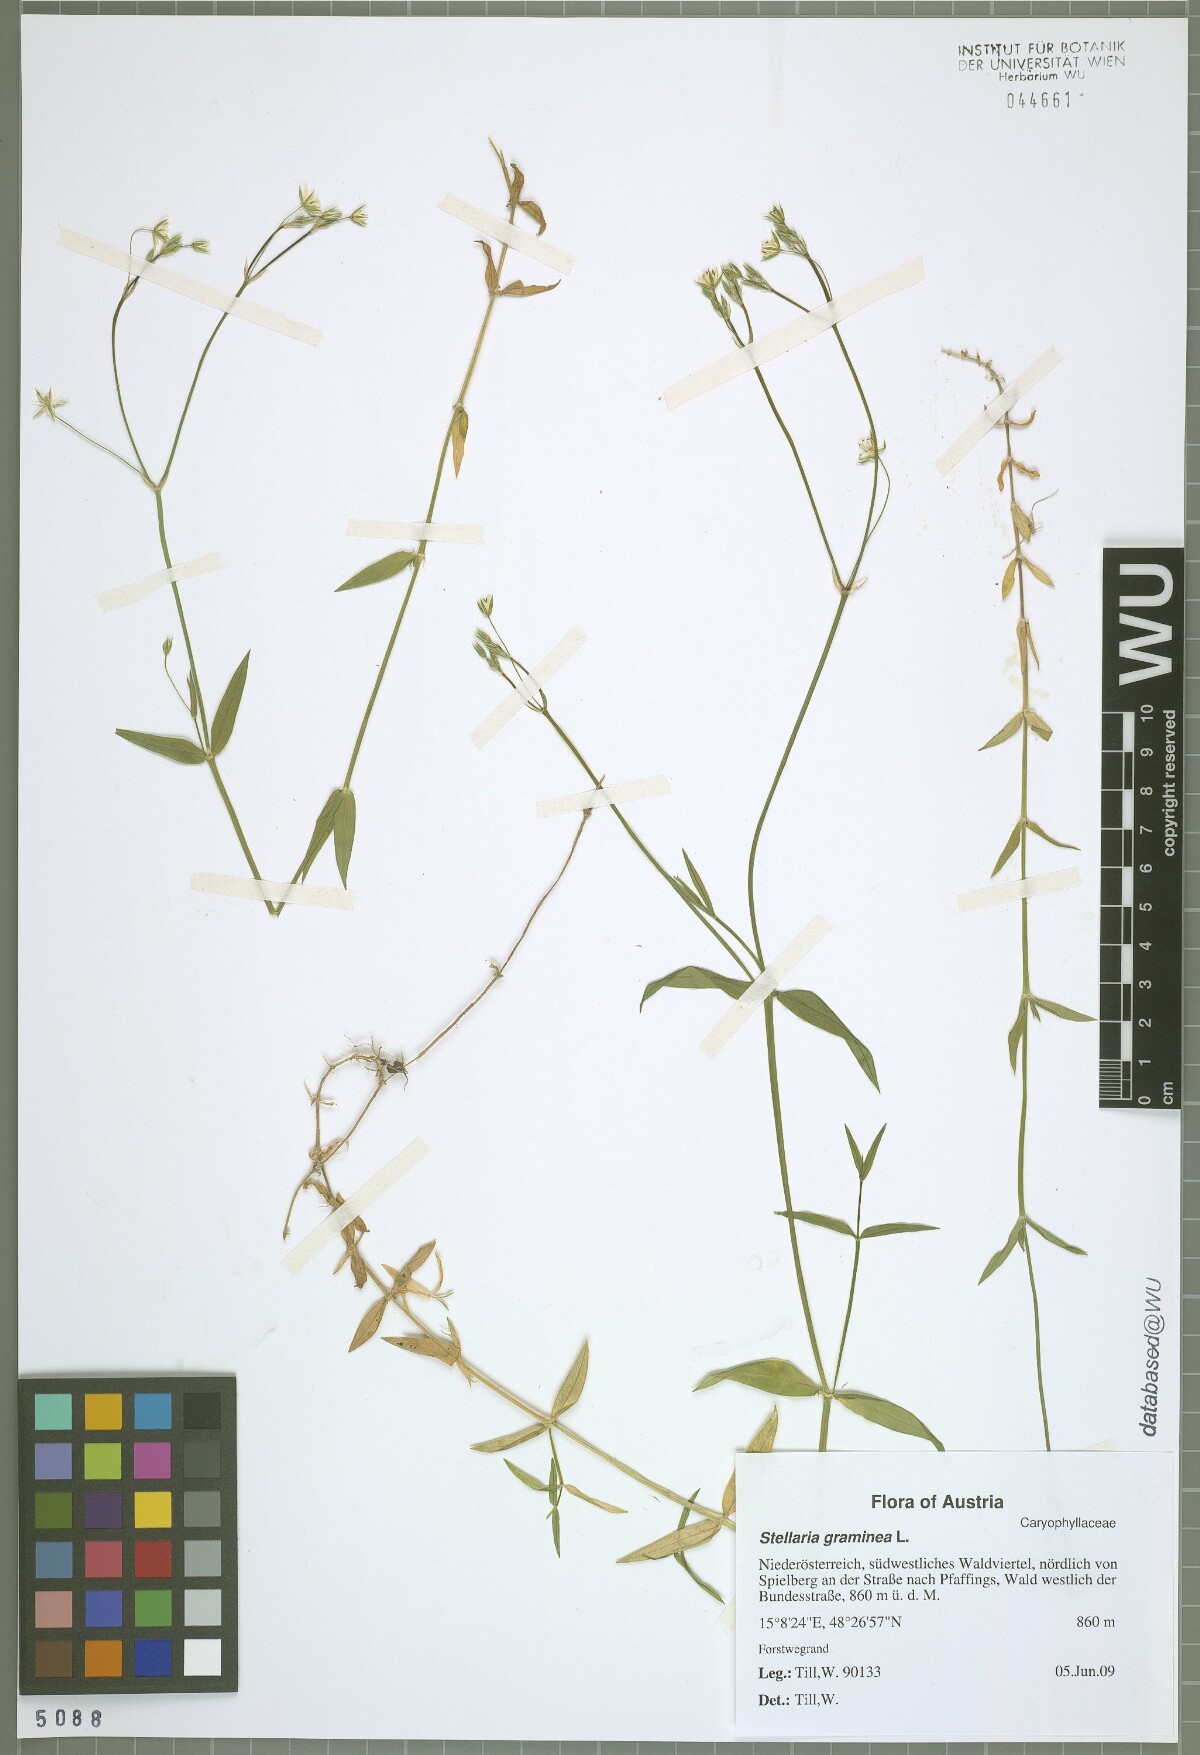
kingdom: Plantae
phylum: Tracheophyta
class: Magnoliopsida
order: Caryophyllales
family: Caryophyllaceae
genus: Stellaria
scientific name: Stellaria graminea
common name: Grass-like starwort
